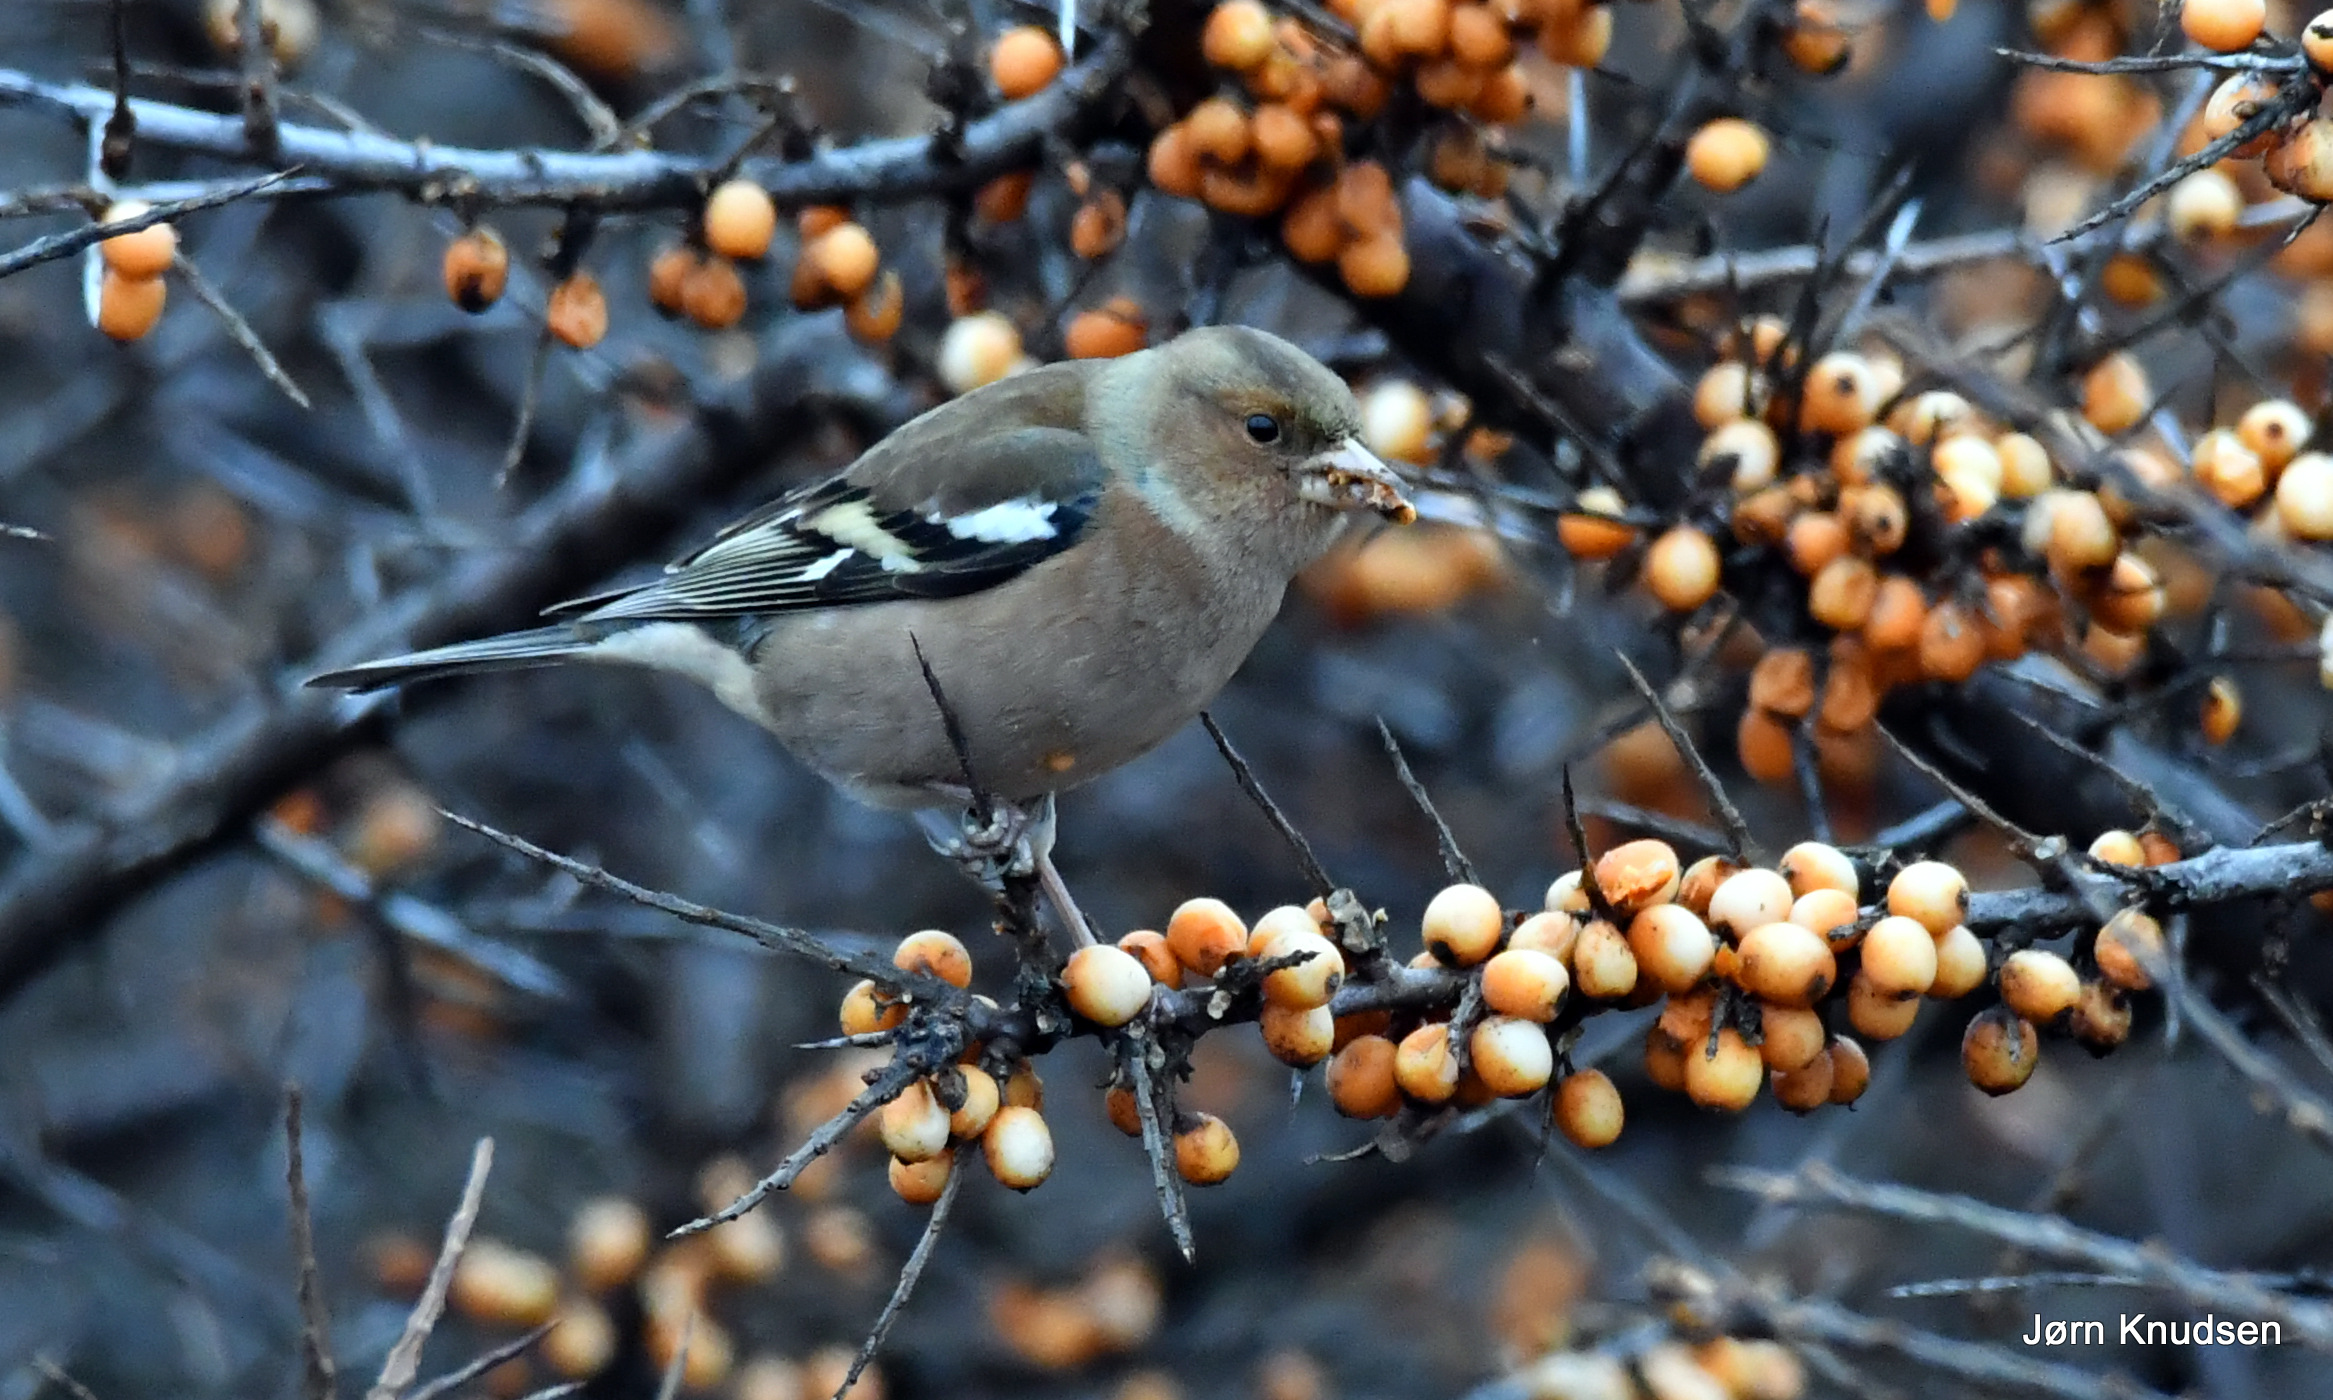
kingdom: Animalia
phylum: Chordata
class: Aves
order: Passeriformes
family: Fringillidae
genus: Fringilla
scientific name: Fringilla coelebs
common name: Bogfinke
